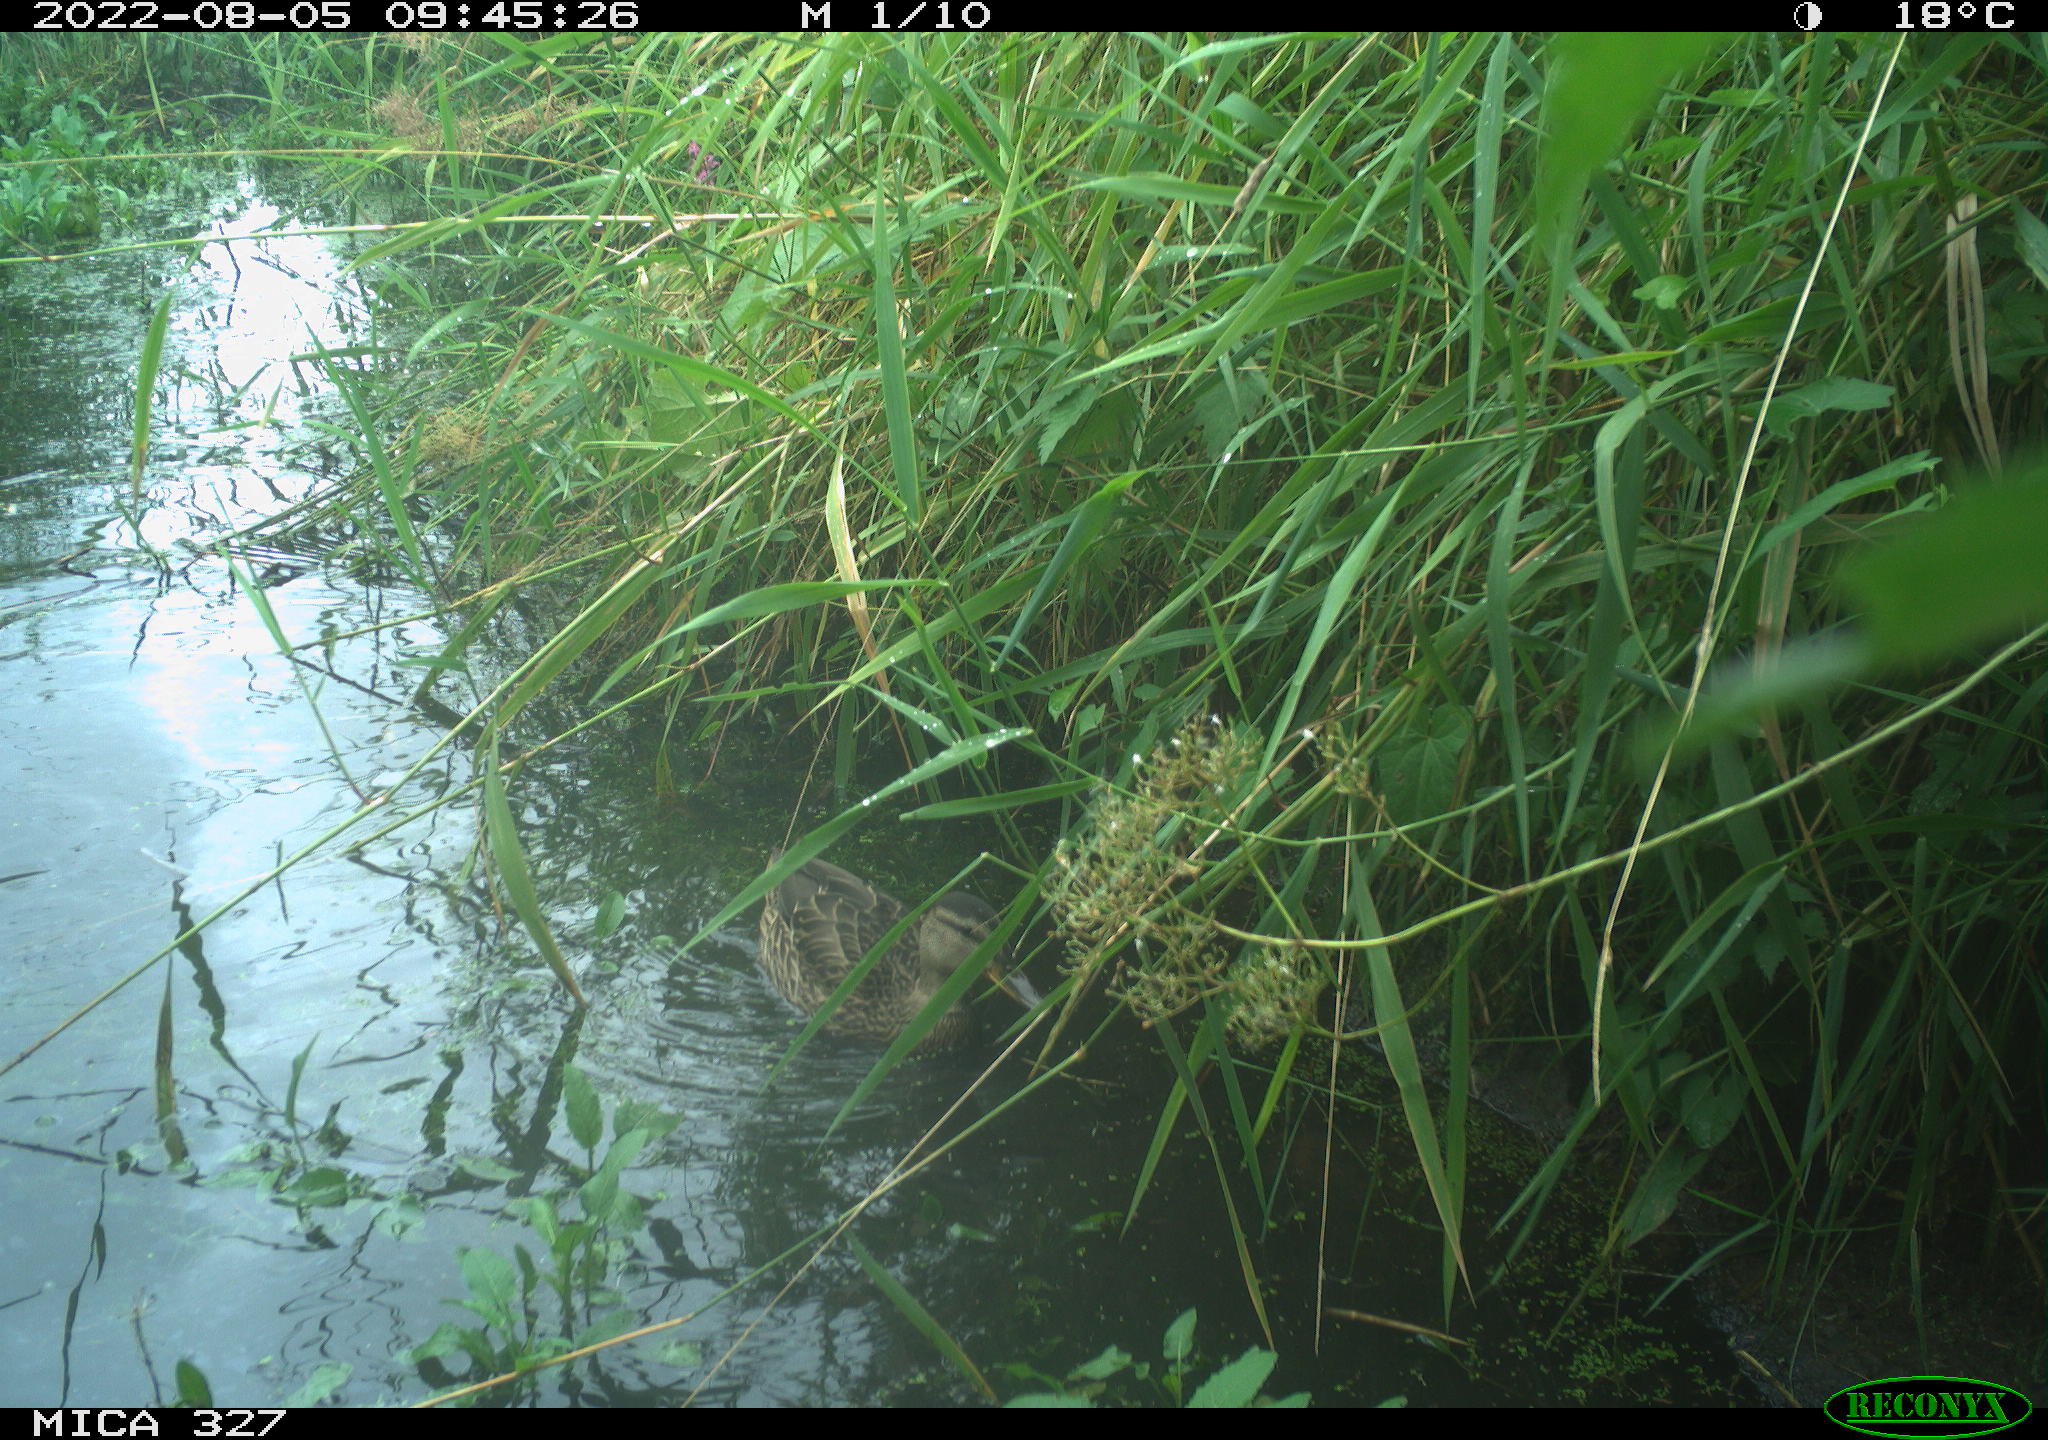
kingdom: Animalia
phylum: Chordata
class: Aves
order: Anseriformes
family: Anatidae
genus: Anas
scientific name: Anas
